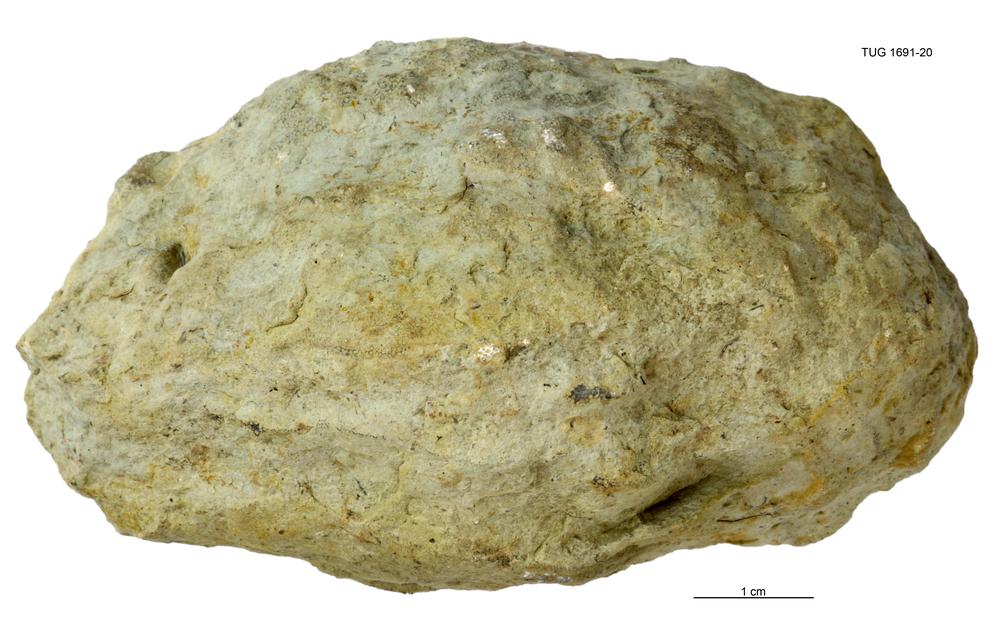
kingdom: Animalia
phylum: Bryozoa
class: Stenolaemata
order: Trepostomatida
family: Diplotrypidae
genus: Diplotrypa
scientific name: Diplotrypa
